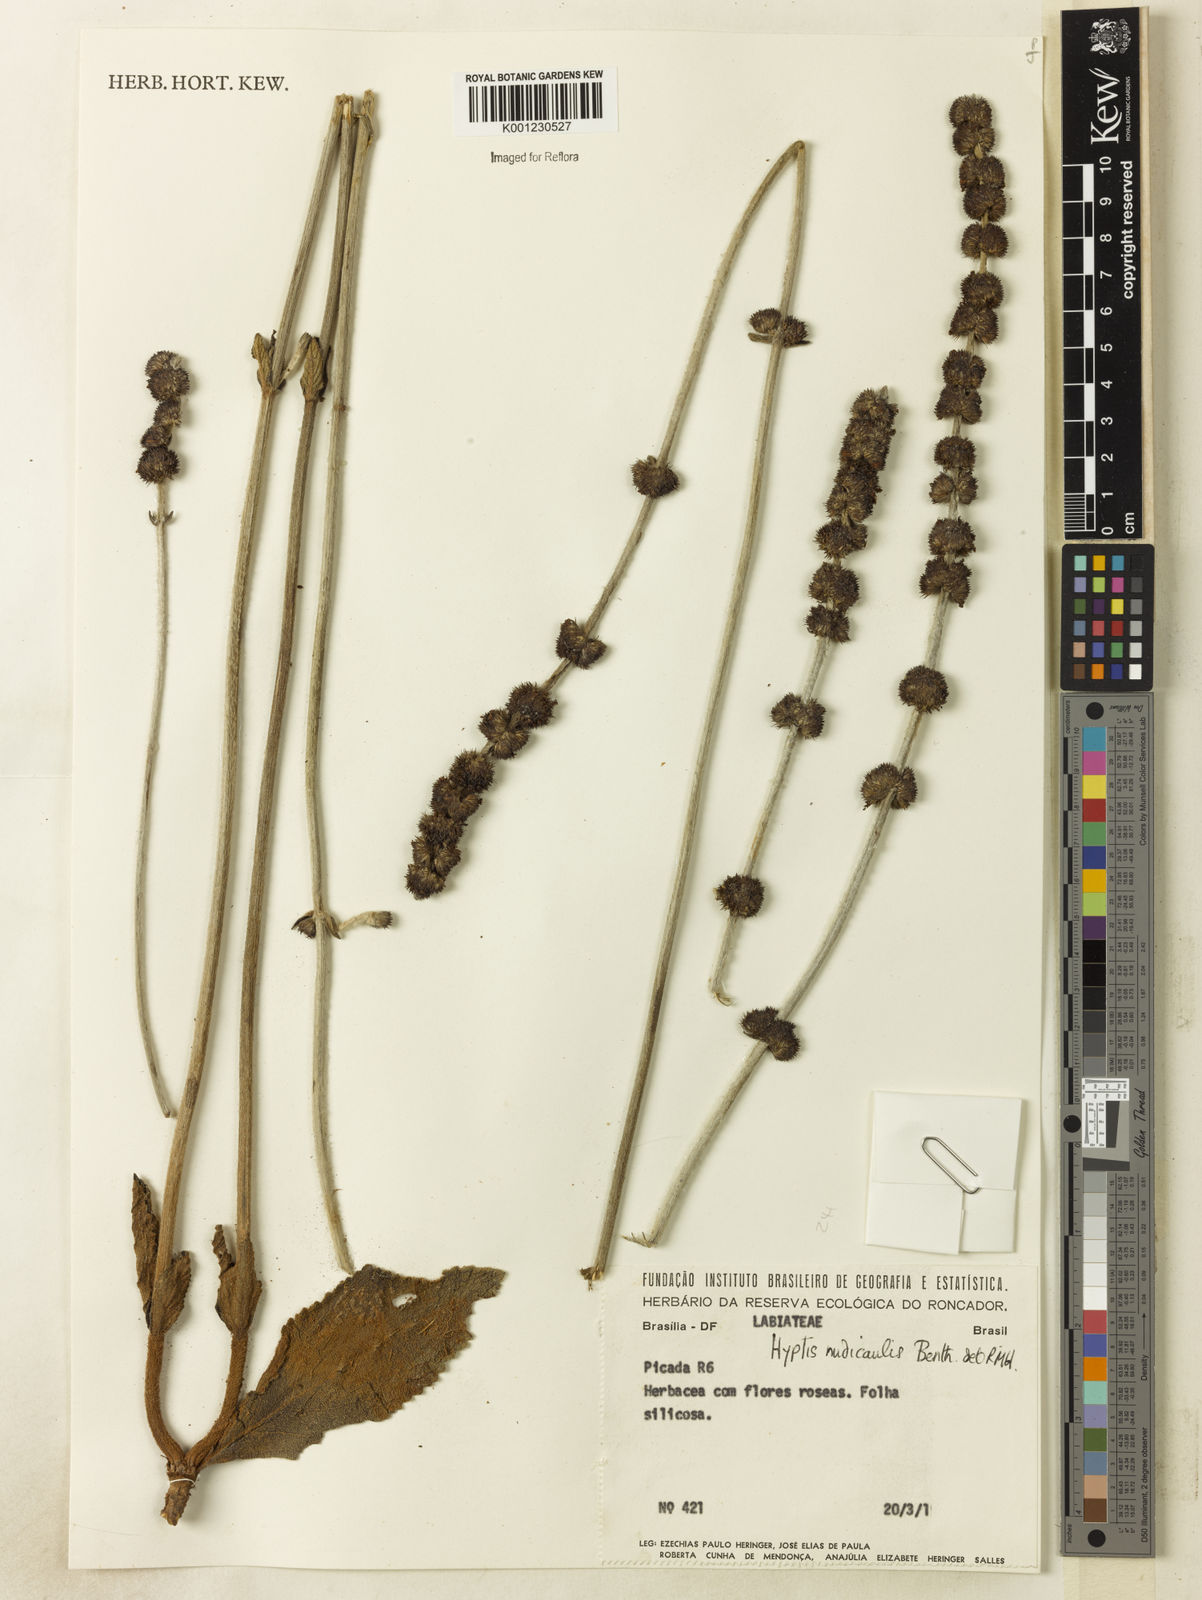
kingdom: Plantae
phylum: Tracheophyta
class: Magnoliopsida
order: Lamiales
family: Lamiaceae
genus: Hyptis
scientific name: Hyptis nudicaulis
